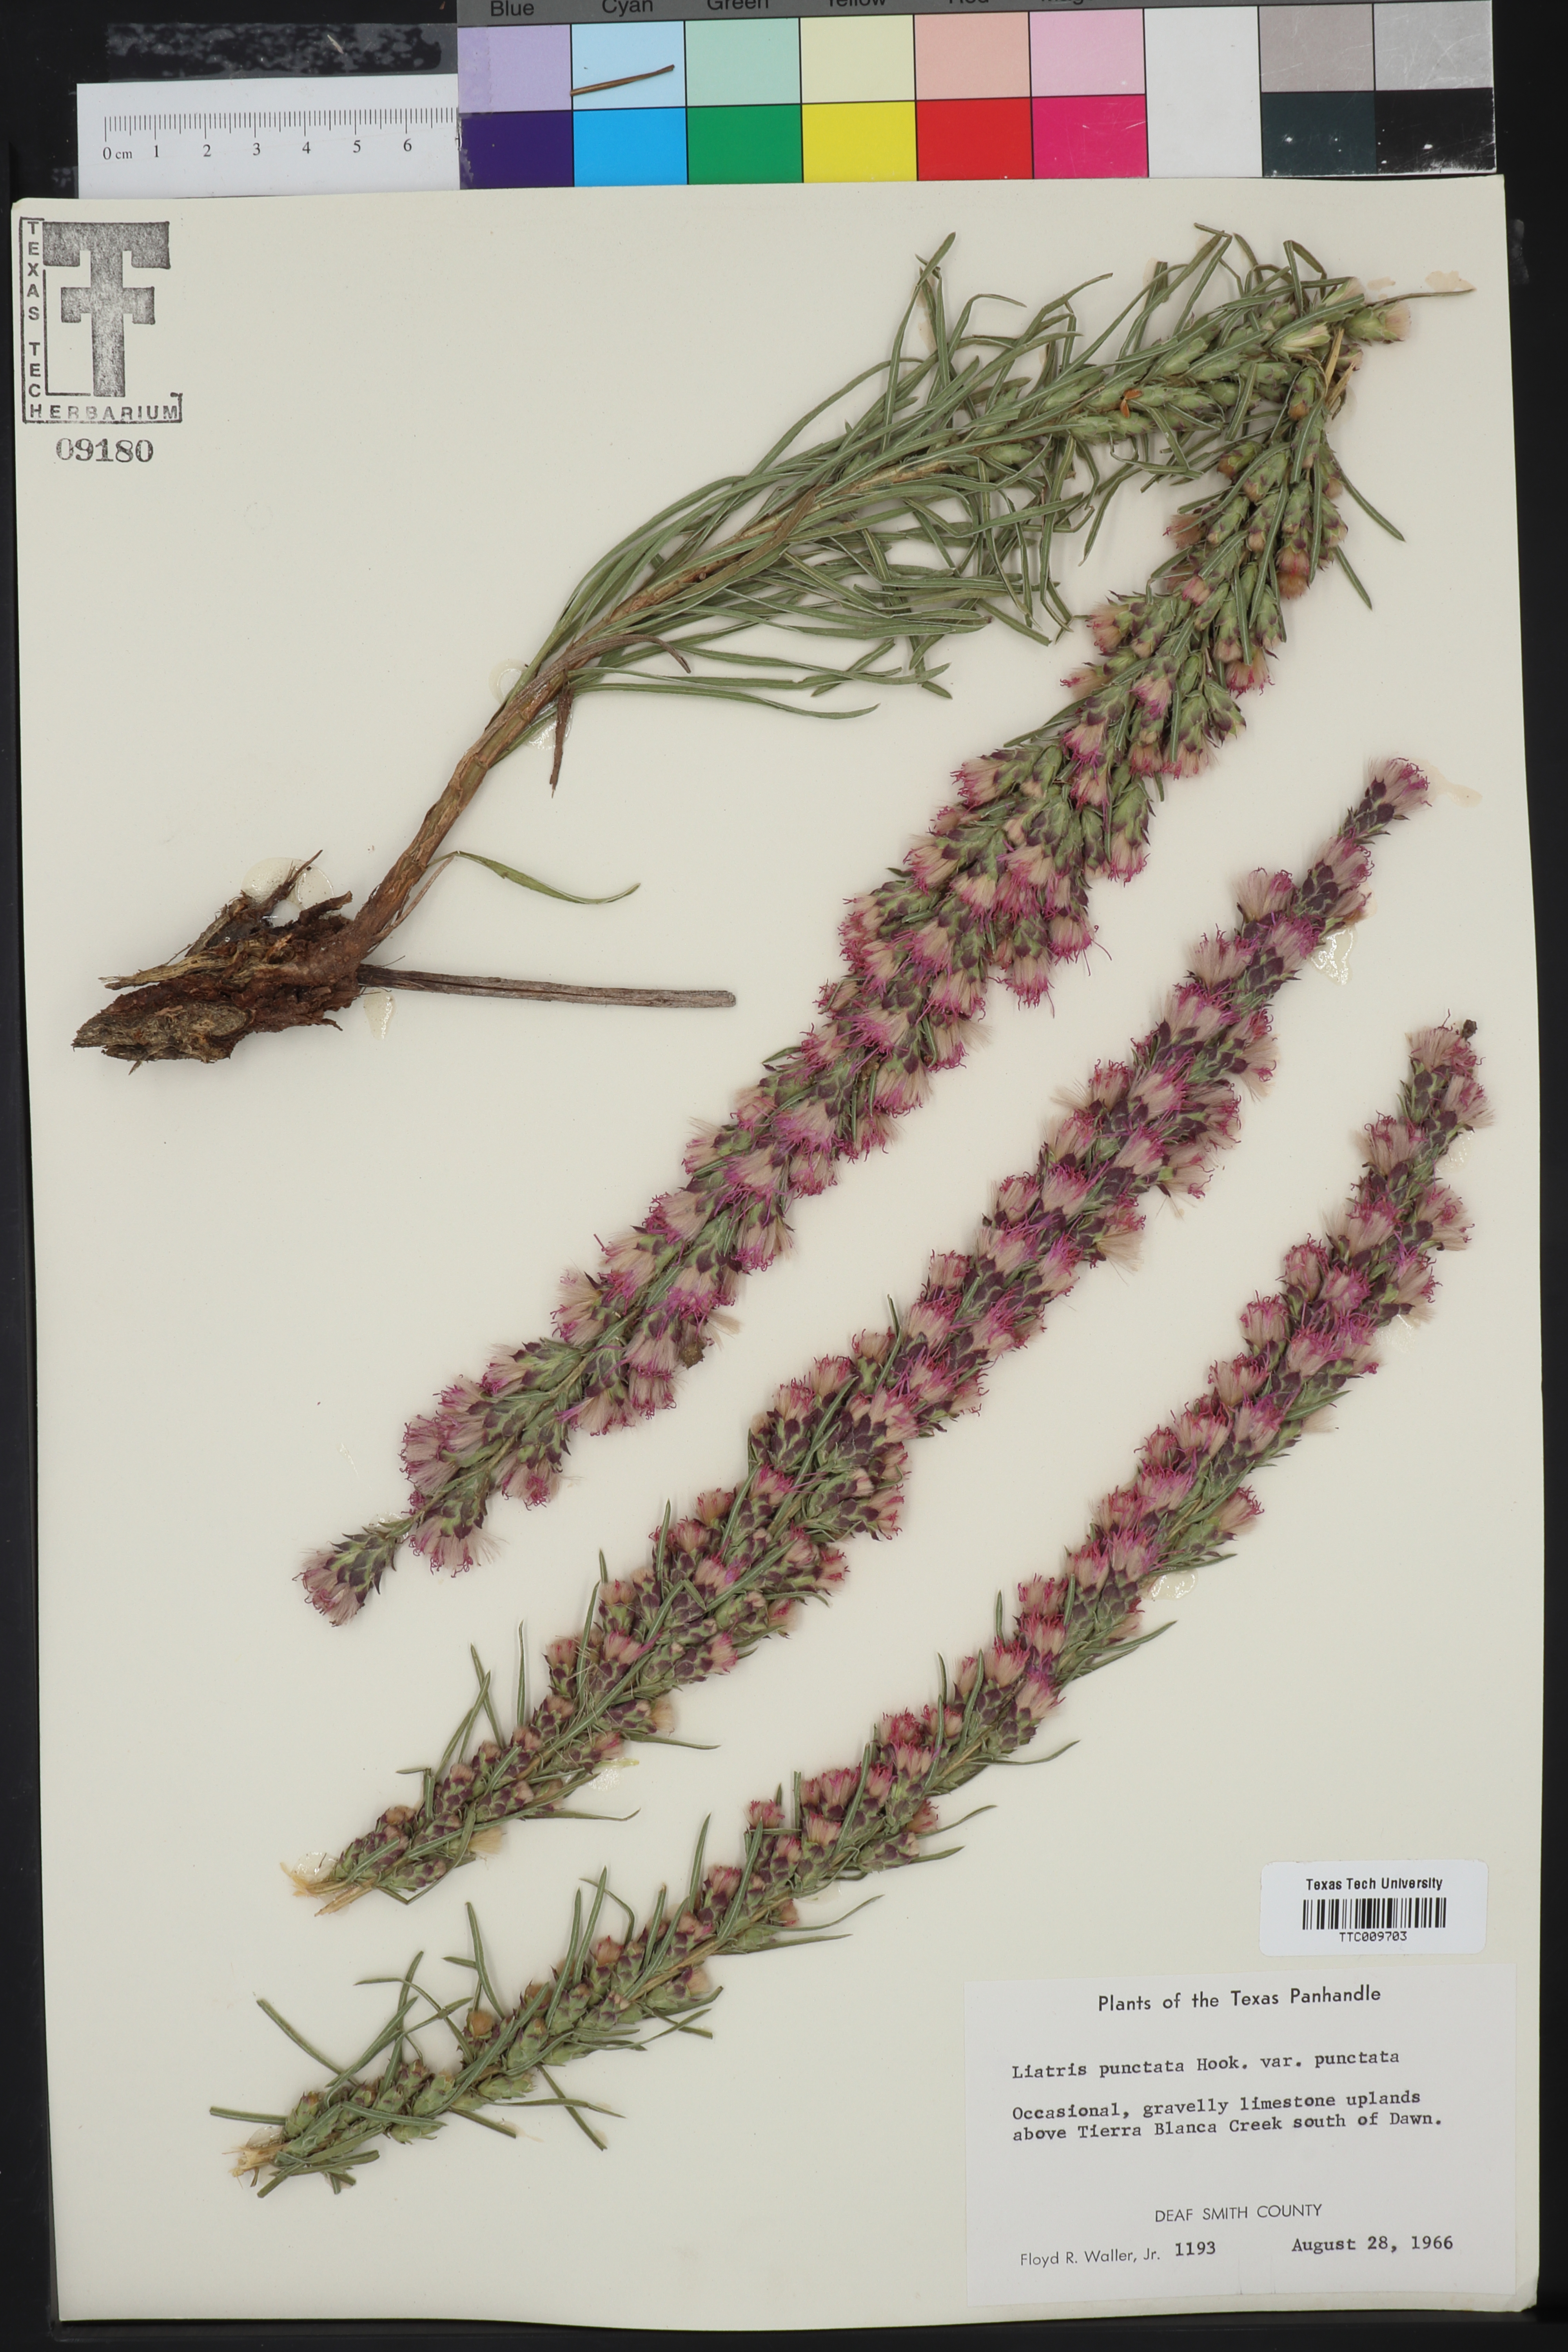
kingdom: Plantae
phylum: Tracheophyta
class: Magnoliopsida
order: Asterales
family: Asteraceae
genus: Liatris
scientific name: Liatris punctata
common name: Dotted gayfeather
